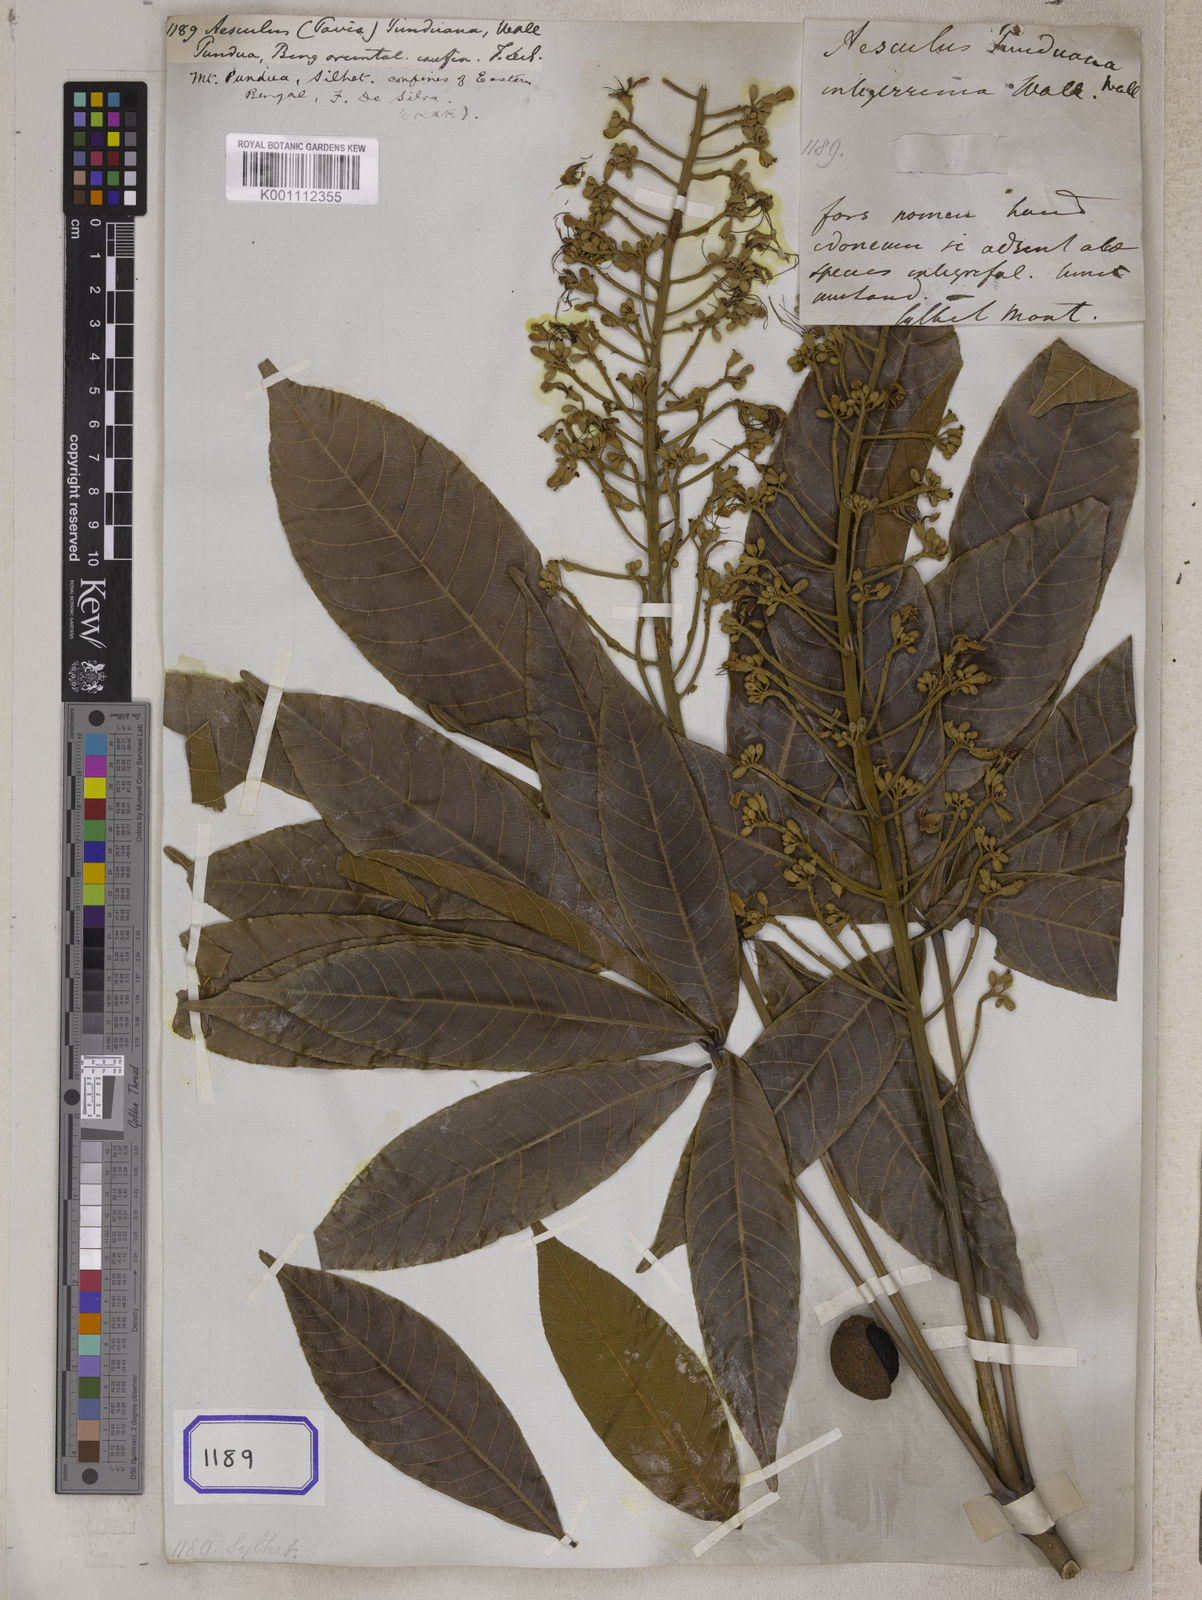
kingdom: Plantae
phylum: Tracheophyta
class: Magnoliopsida
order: Sapindales
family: Sapindaceae
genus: Aesculus
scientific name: Aesculus
